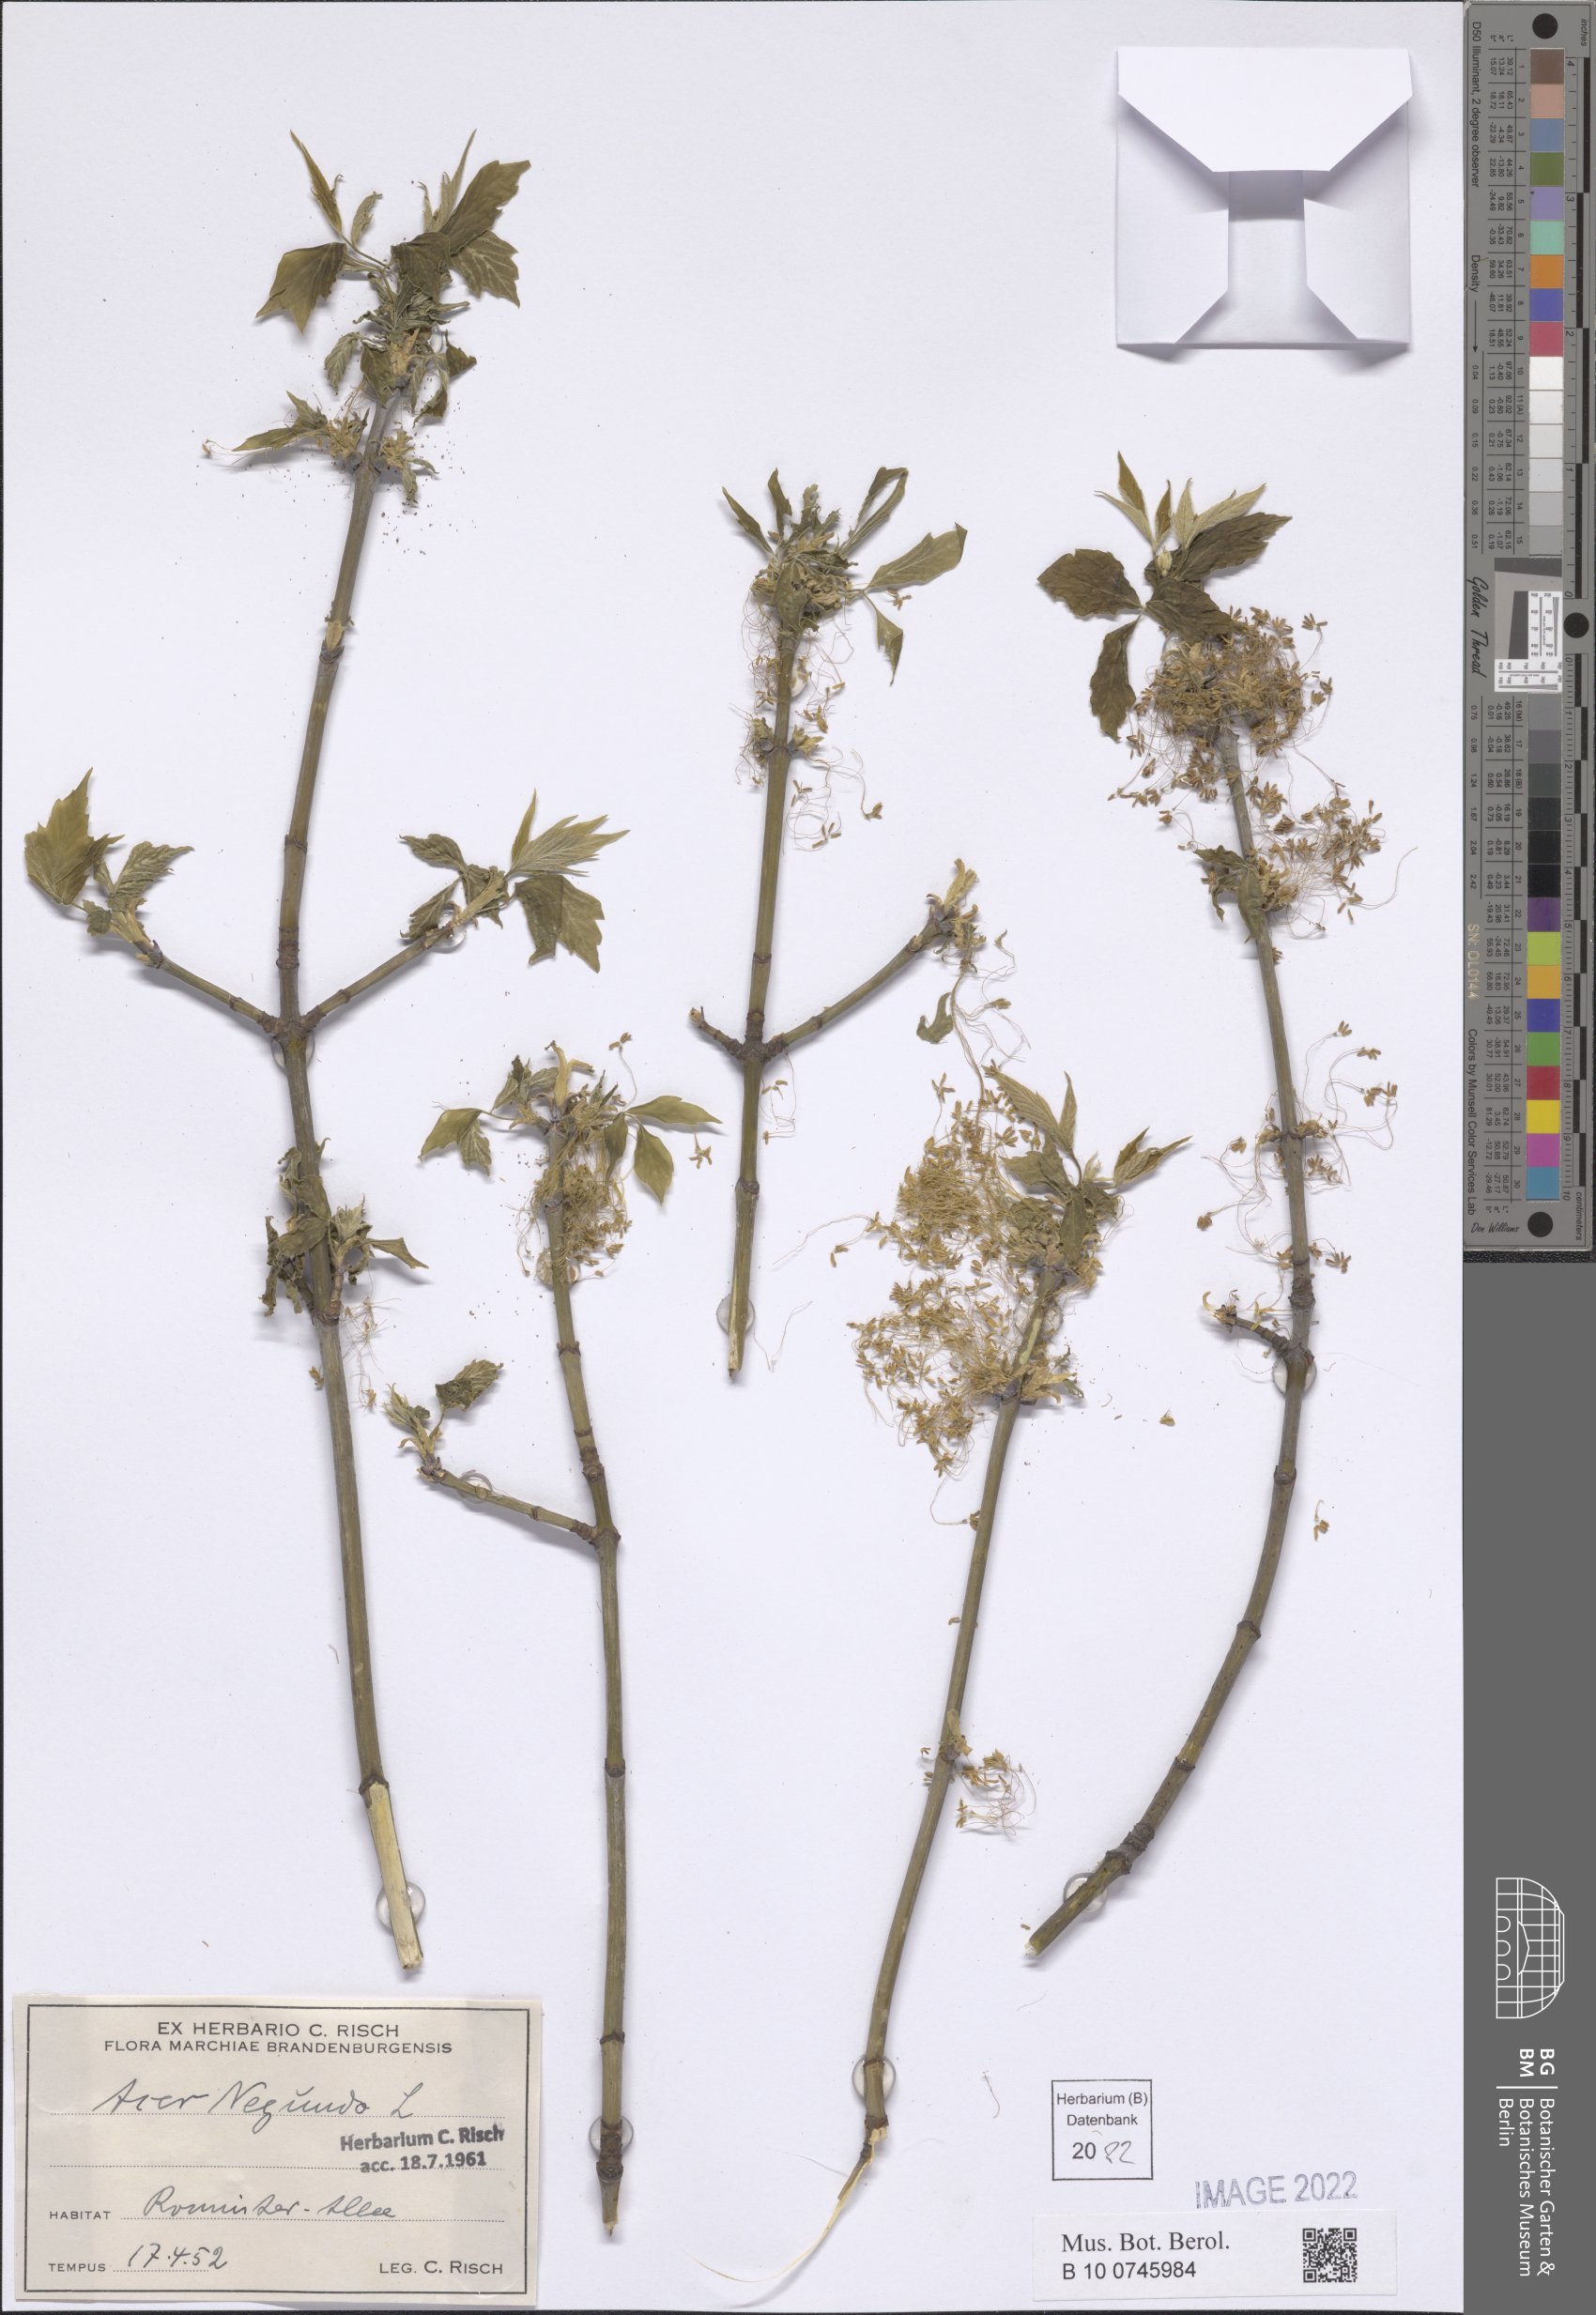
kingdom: Plantae
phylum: Tracheophyta
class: Magnoliopsida
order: Sapindales
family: Sapindaceae
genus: Acer
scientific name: Acer negundo
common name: Ashleaf maple
